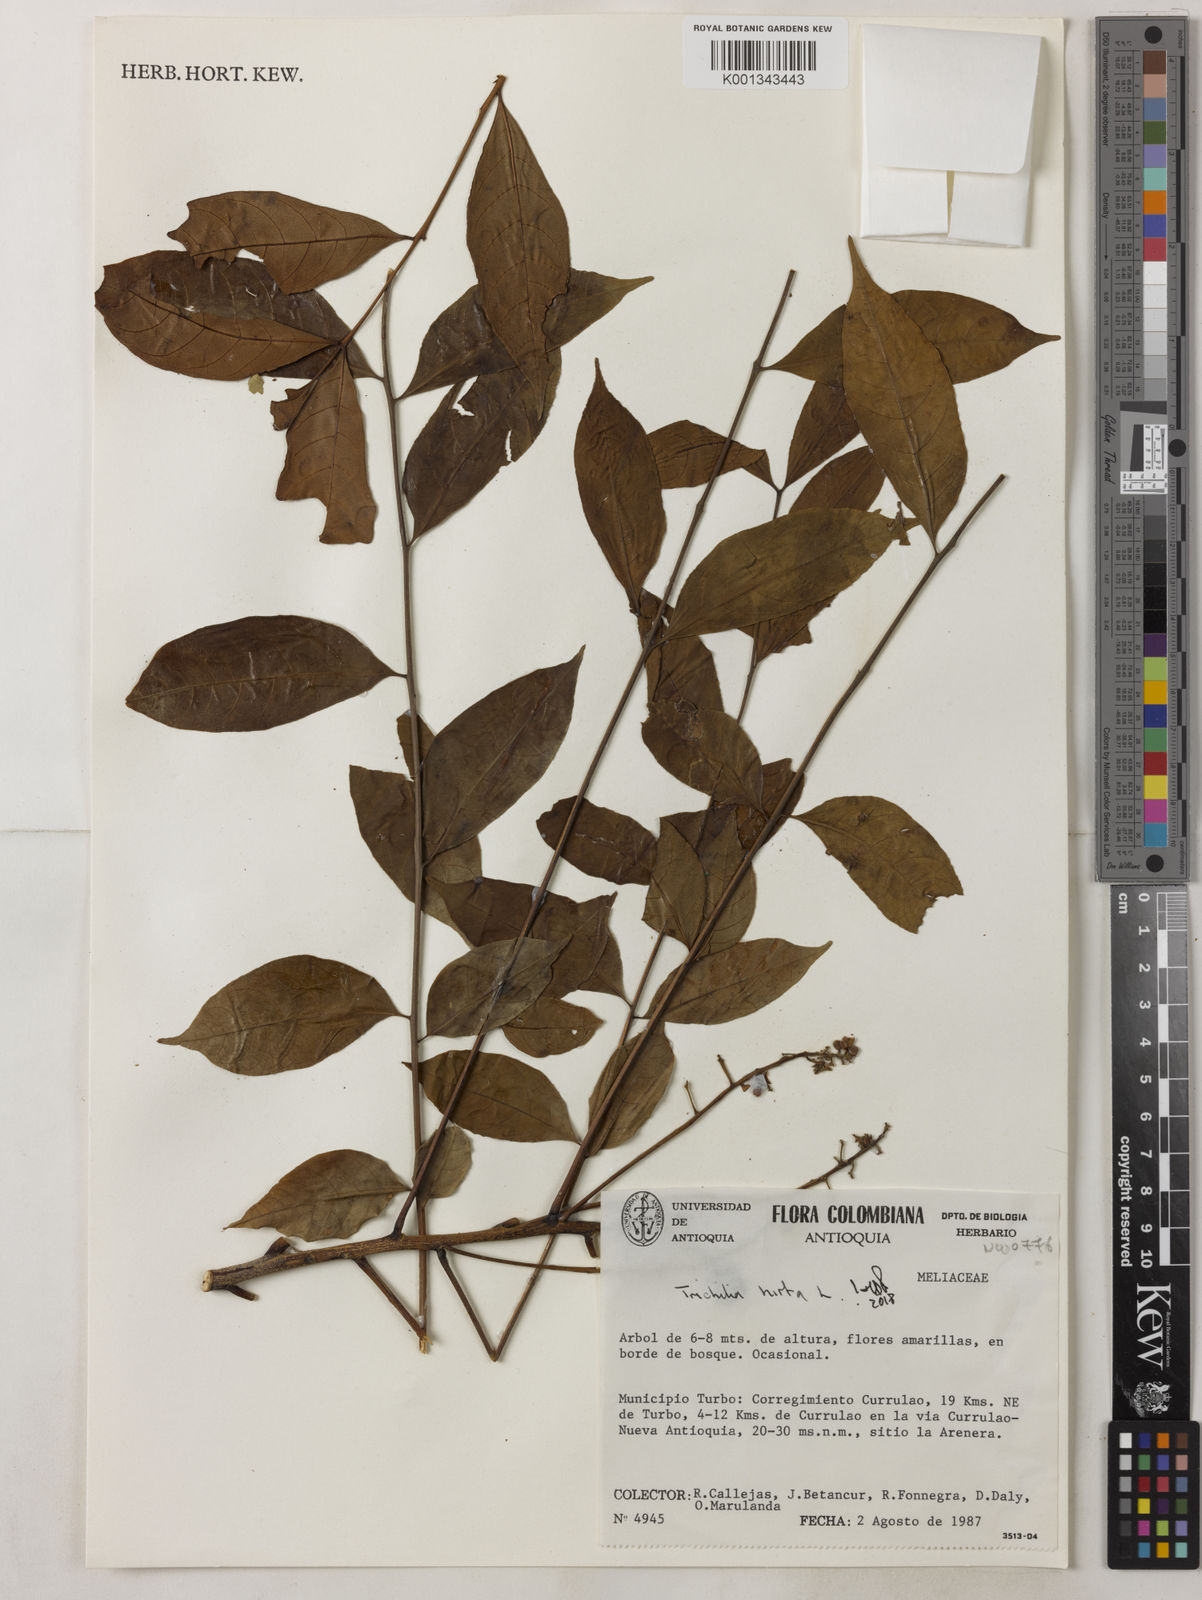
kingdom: Plantae
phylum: Tracheophyta
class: Magnoliopsida
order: Sapindales
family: Meliaceae
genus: Trichilia
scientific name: Trichilia hirta
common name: Red-cedar
